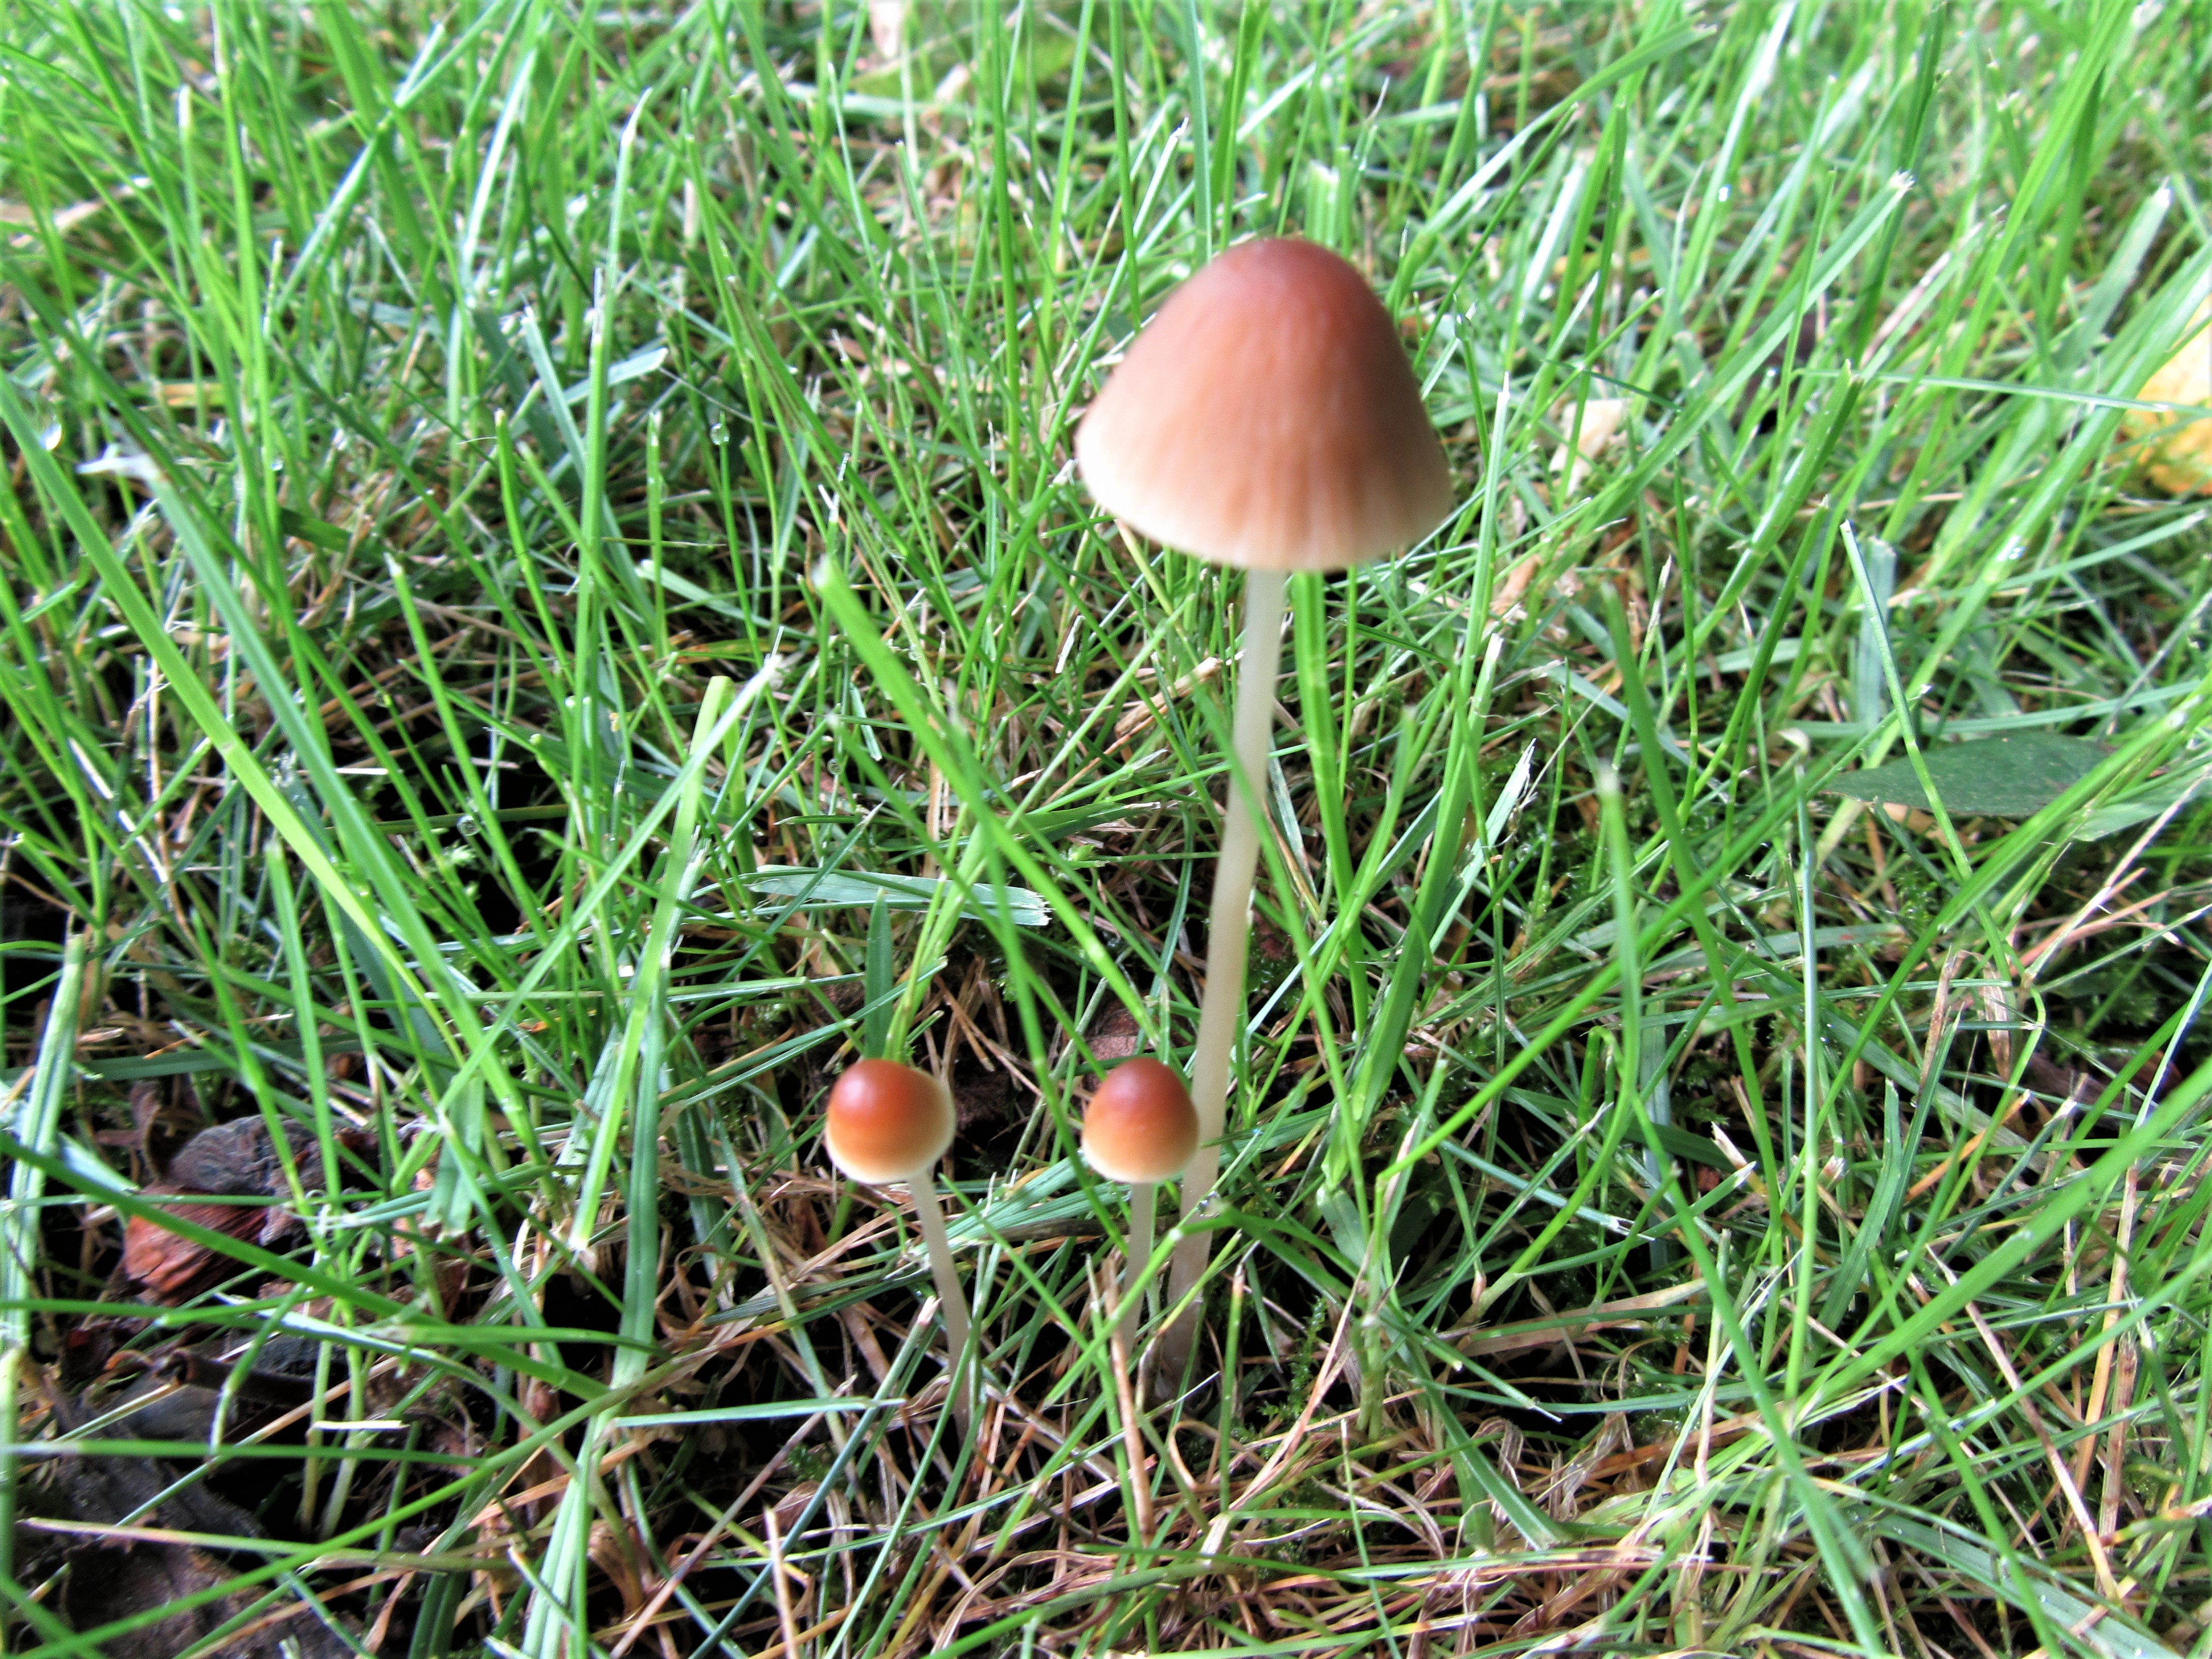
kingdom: Fungi
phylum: Basidiomycota
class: Agaricomycetes
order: Agaricales
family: Psathyrellaceae
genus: Parasola
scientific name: Parasola conopilea
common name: kegle-hjulhat
